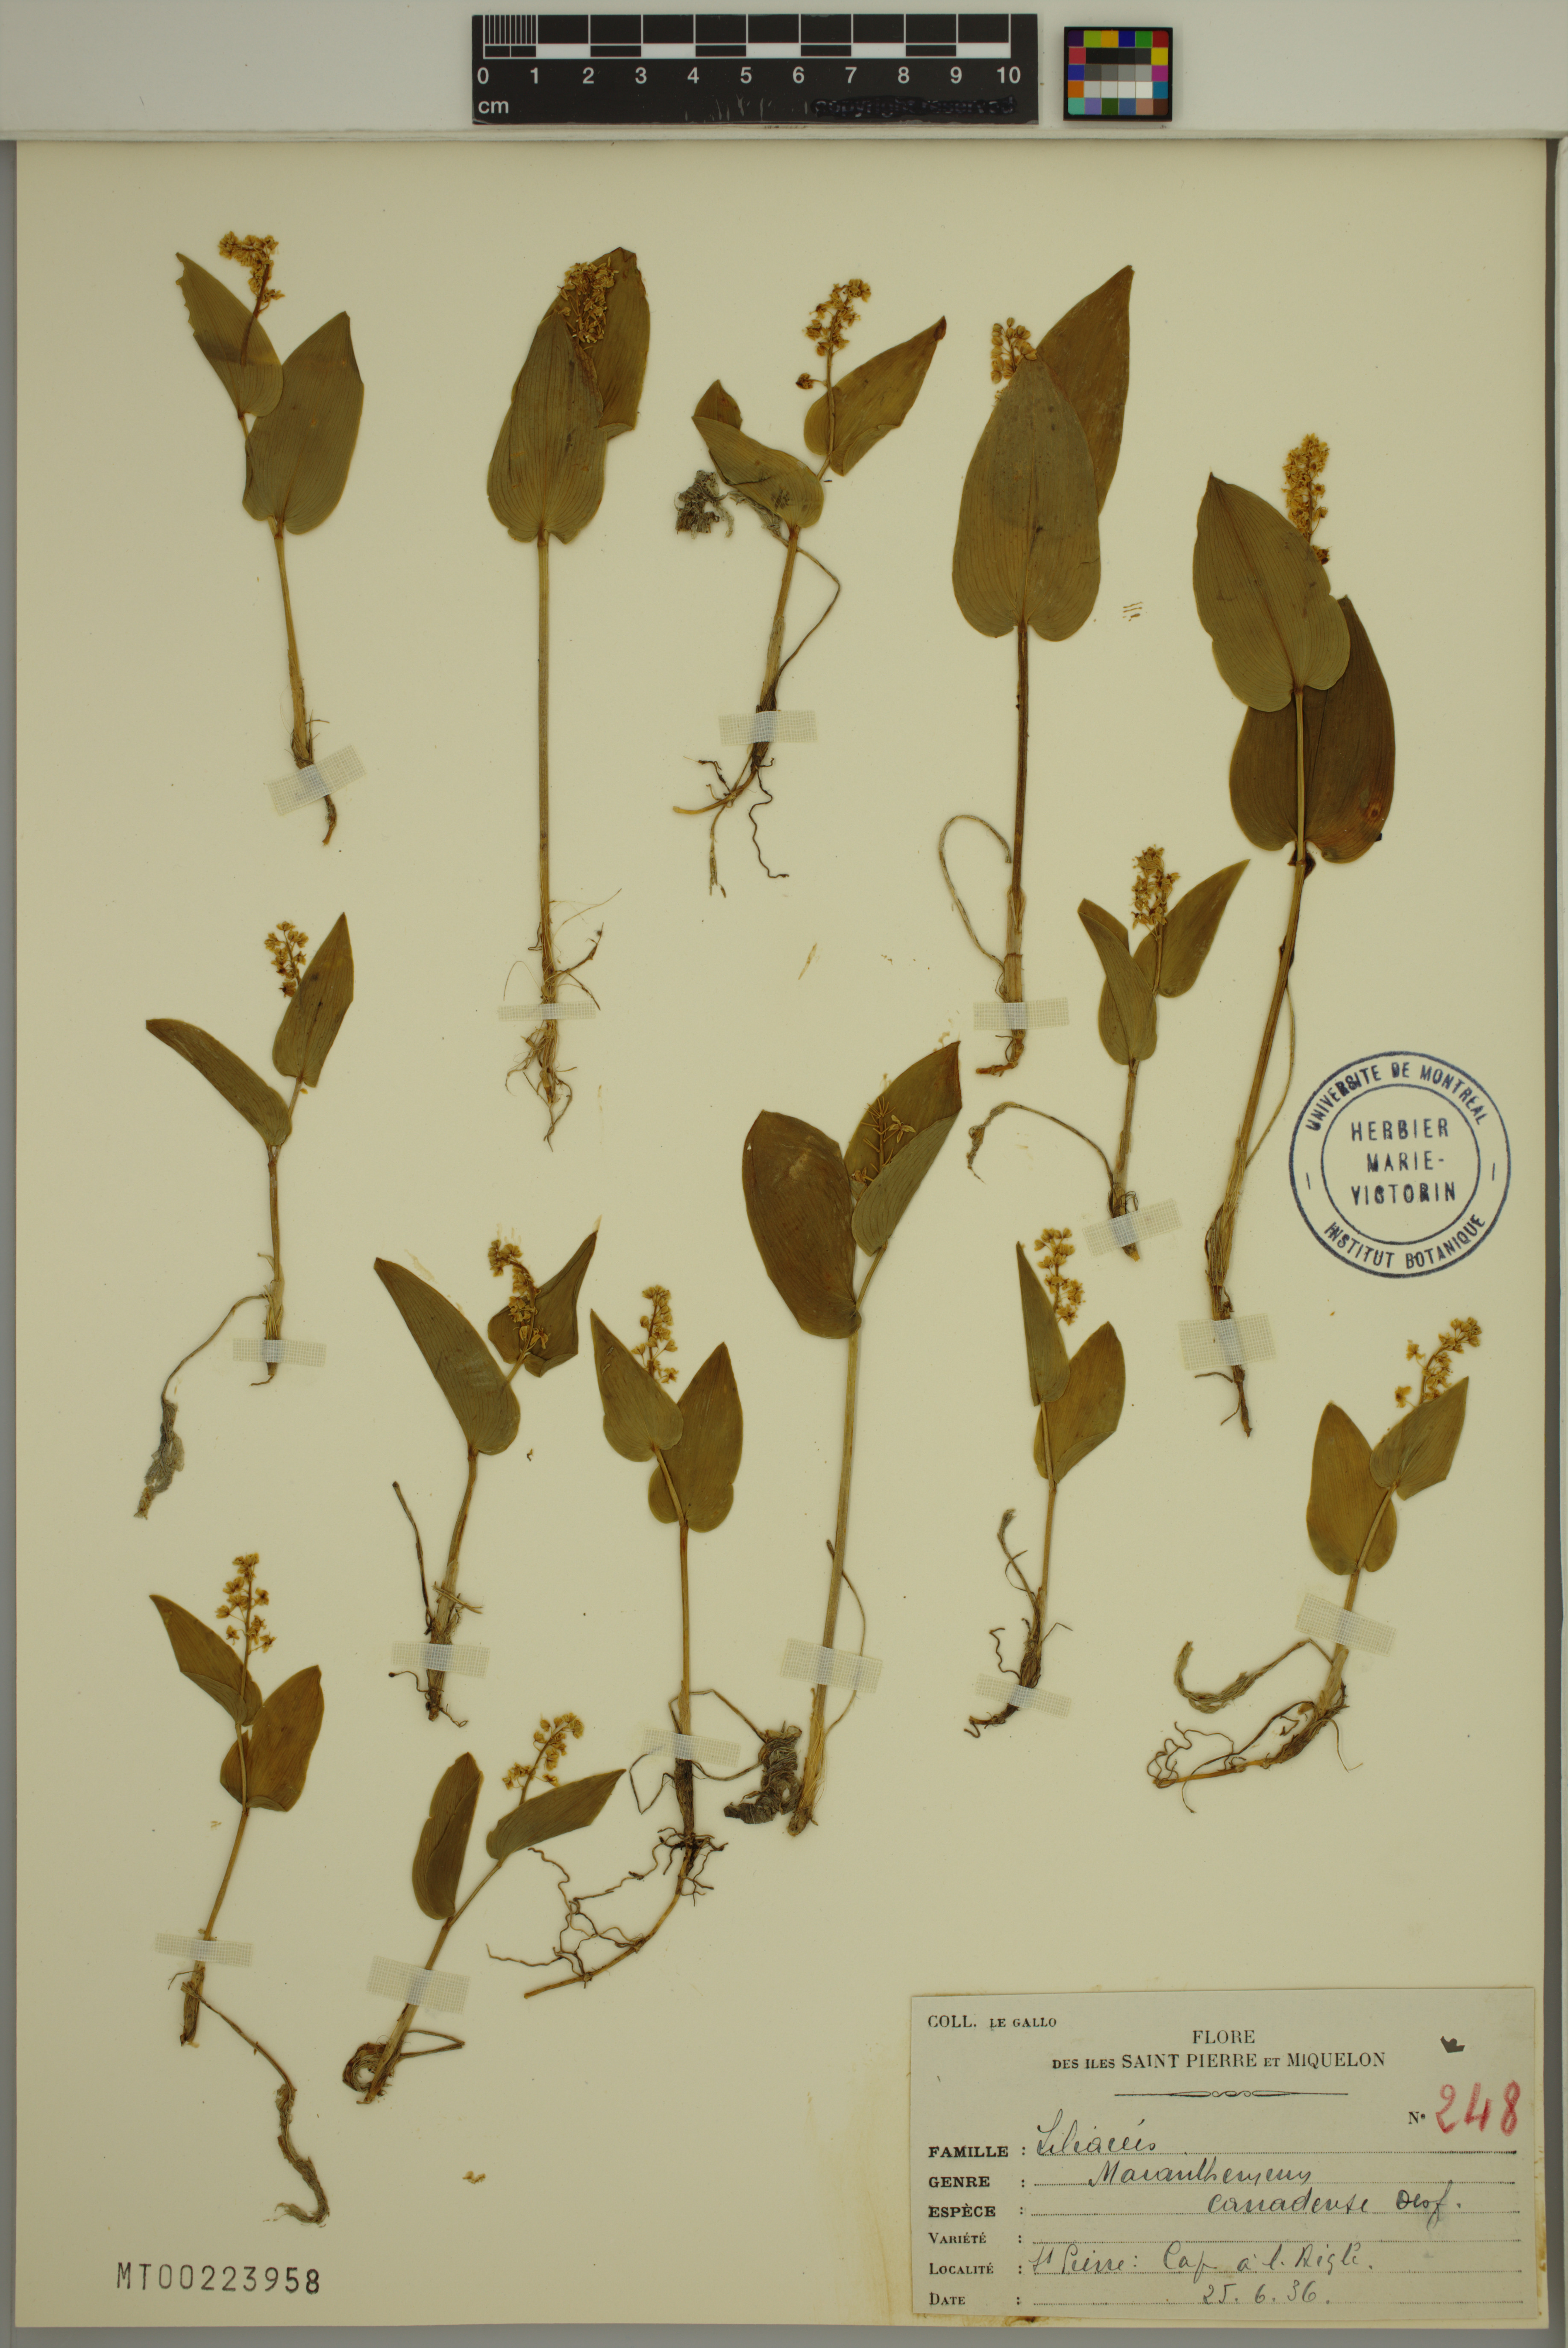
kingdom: Plantae
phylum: Tracheophyta
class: Liliopsida
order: Asparagales
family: Asparagaceae
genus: Maianthemum
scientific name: Maianthemum canadense
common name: False lily-of-the-valley
